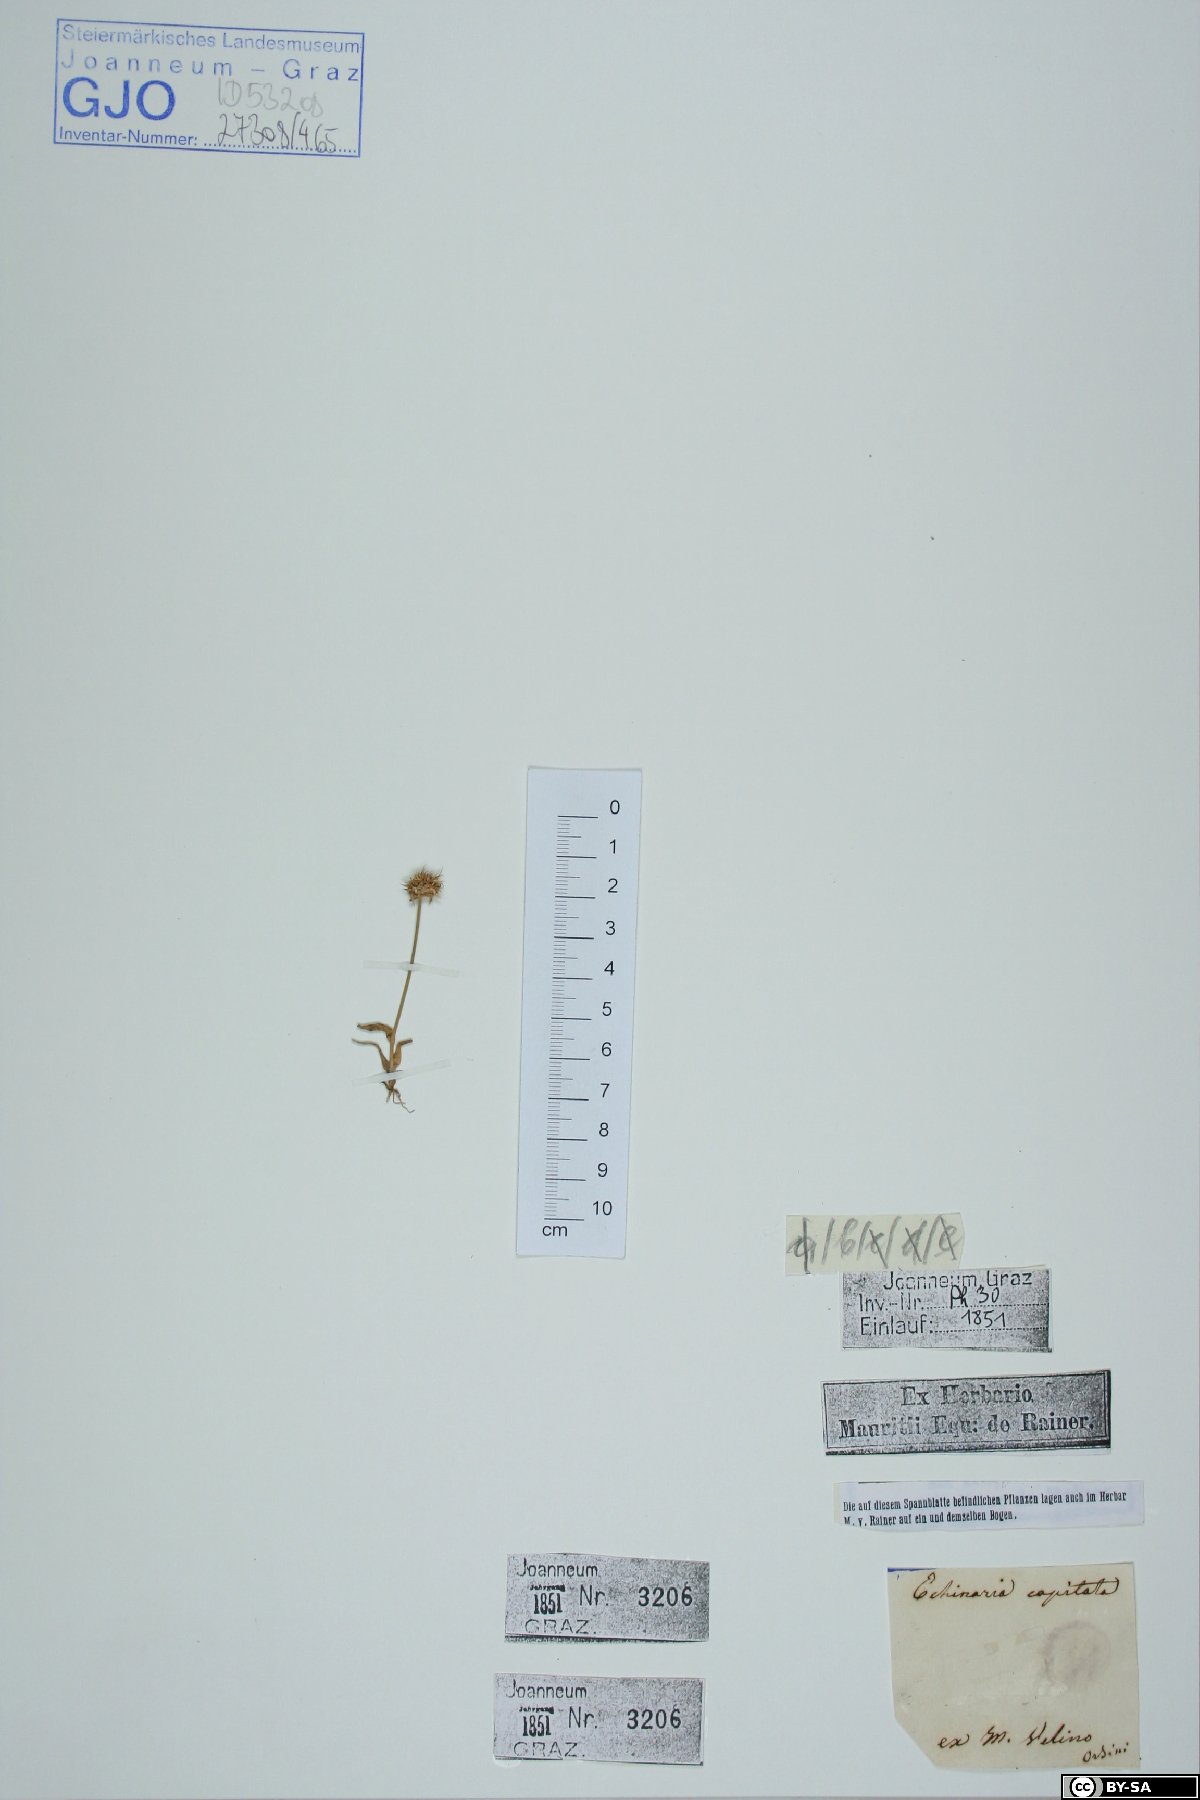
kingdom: Plantae
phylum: Tracheophyta
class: Liliopsida
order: Poales
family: Poaceae
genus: Echinaria
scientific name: Echinaria capitata
